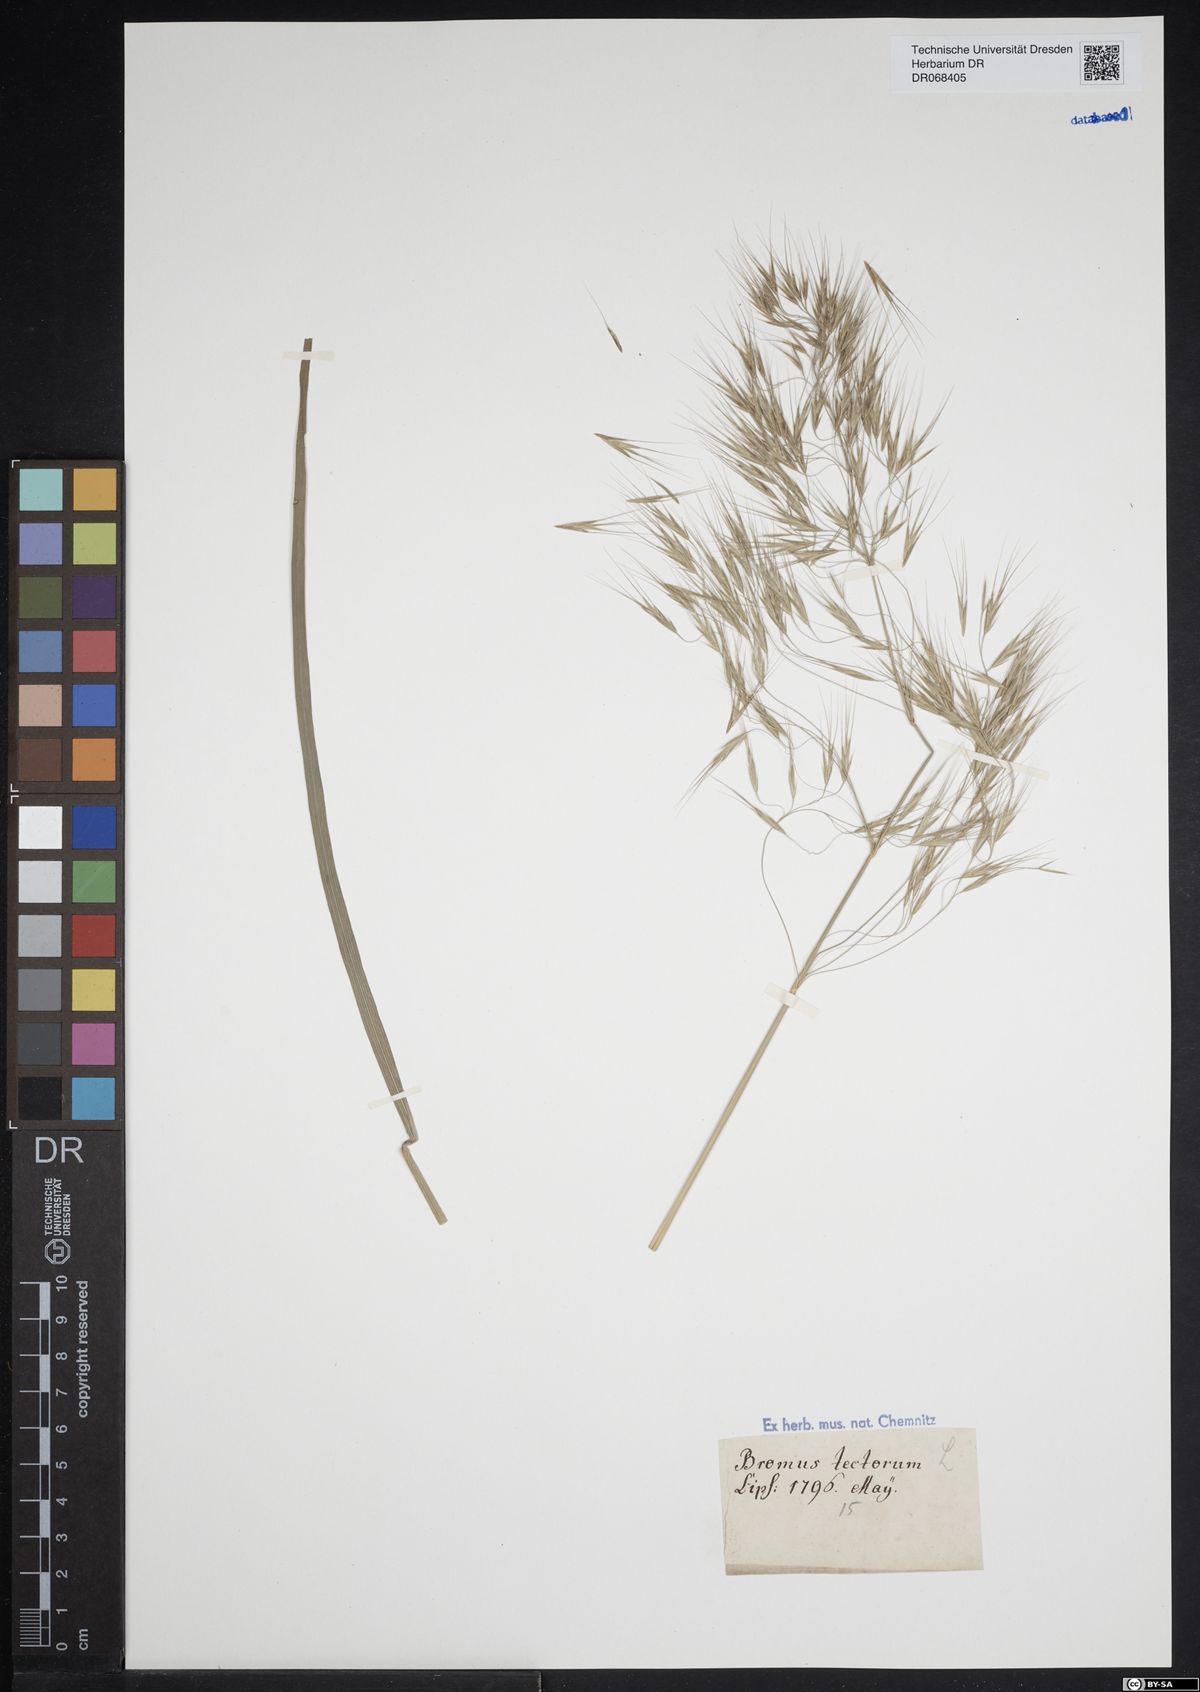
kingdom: Plantae
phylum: Tracheophyta
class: Liliopsida
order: Poales
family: Poaceae
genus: Bromus
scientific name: Bromus tectorum
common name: Cheatgrass
